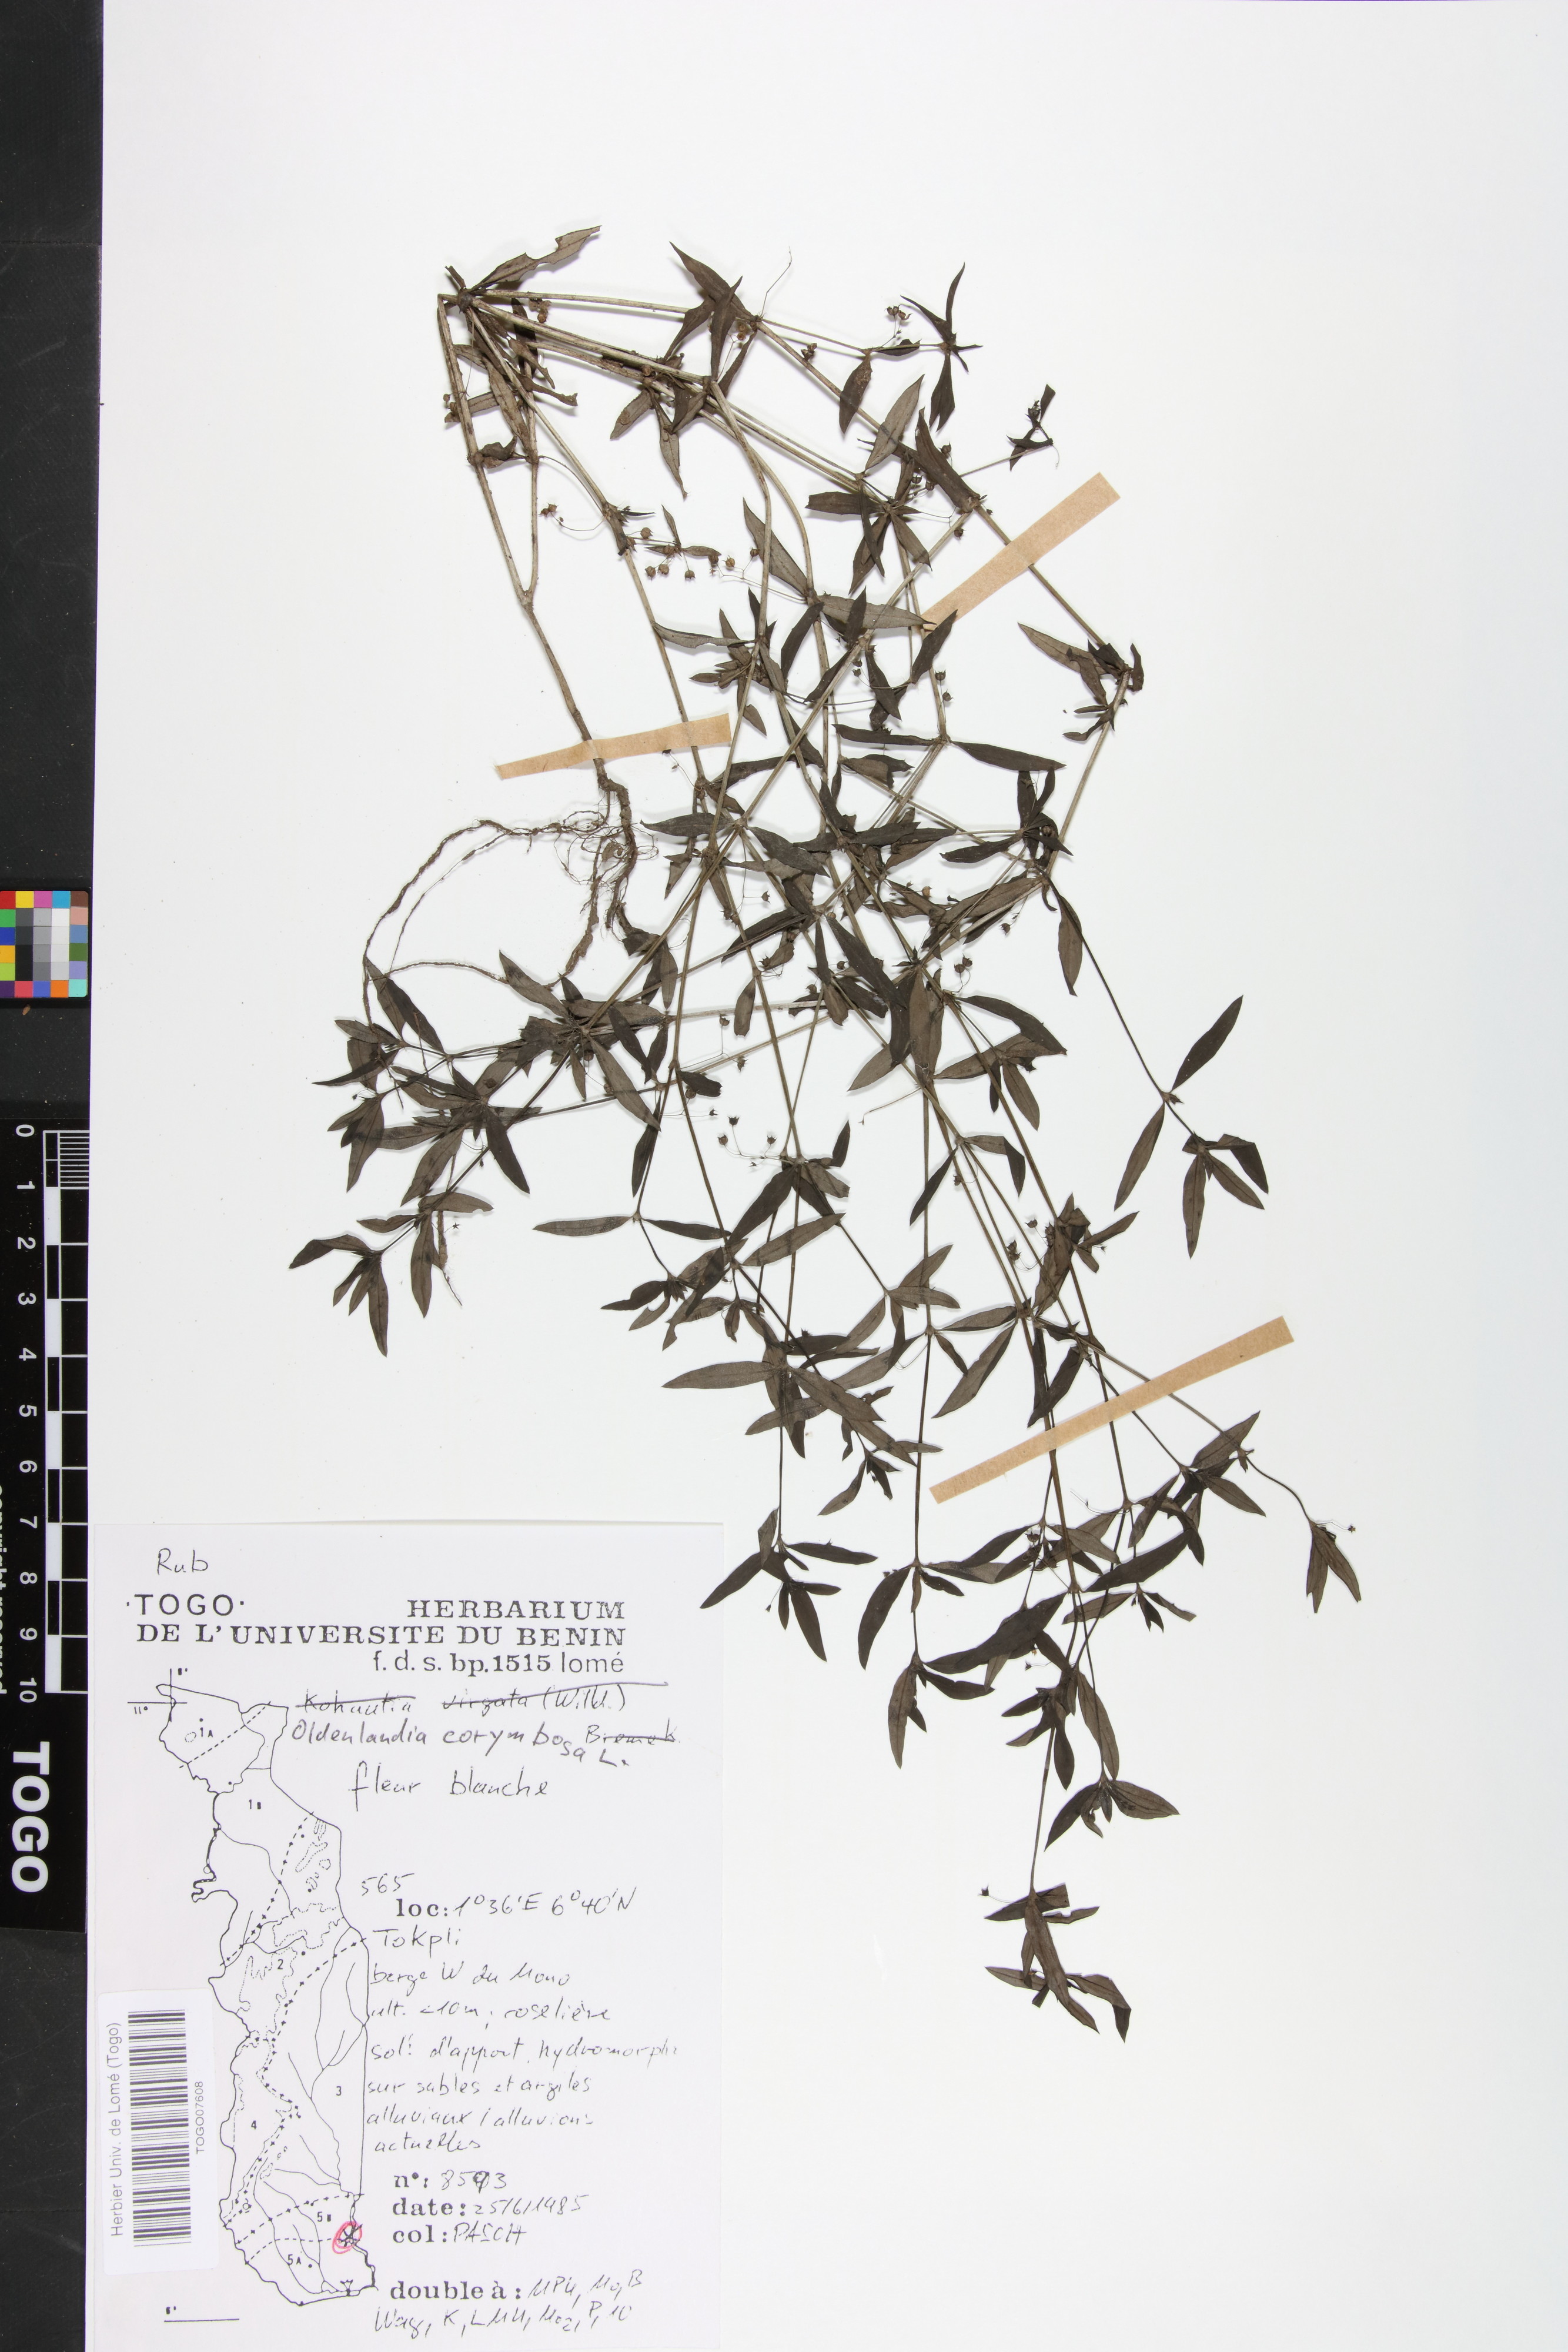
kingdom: Plantae
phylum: Tracheophyta
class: Magnoliopsida
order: Gentianales
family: Rubiaceae
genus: Oldenlandia
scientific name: Oldenlandia corymbosa
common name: Flat-top mille graines
